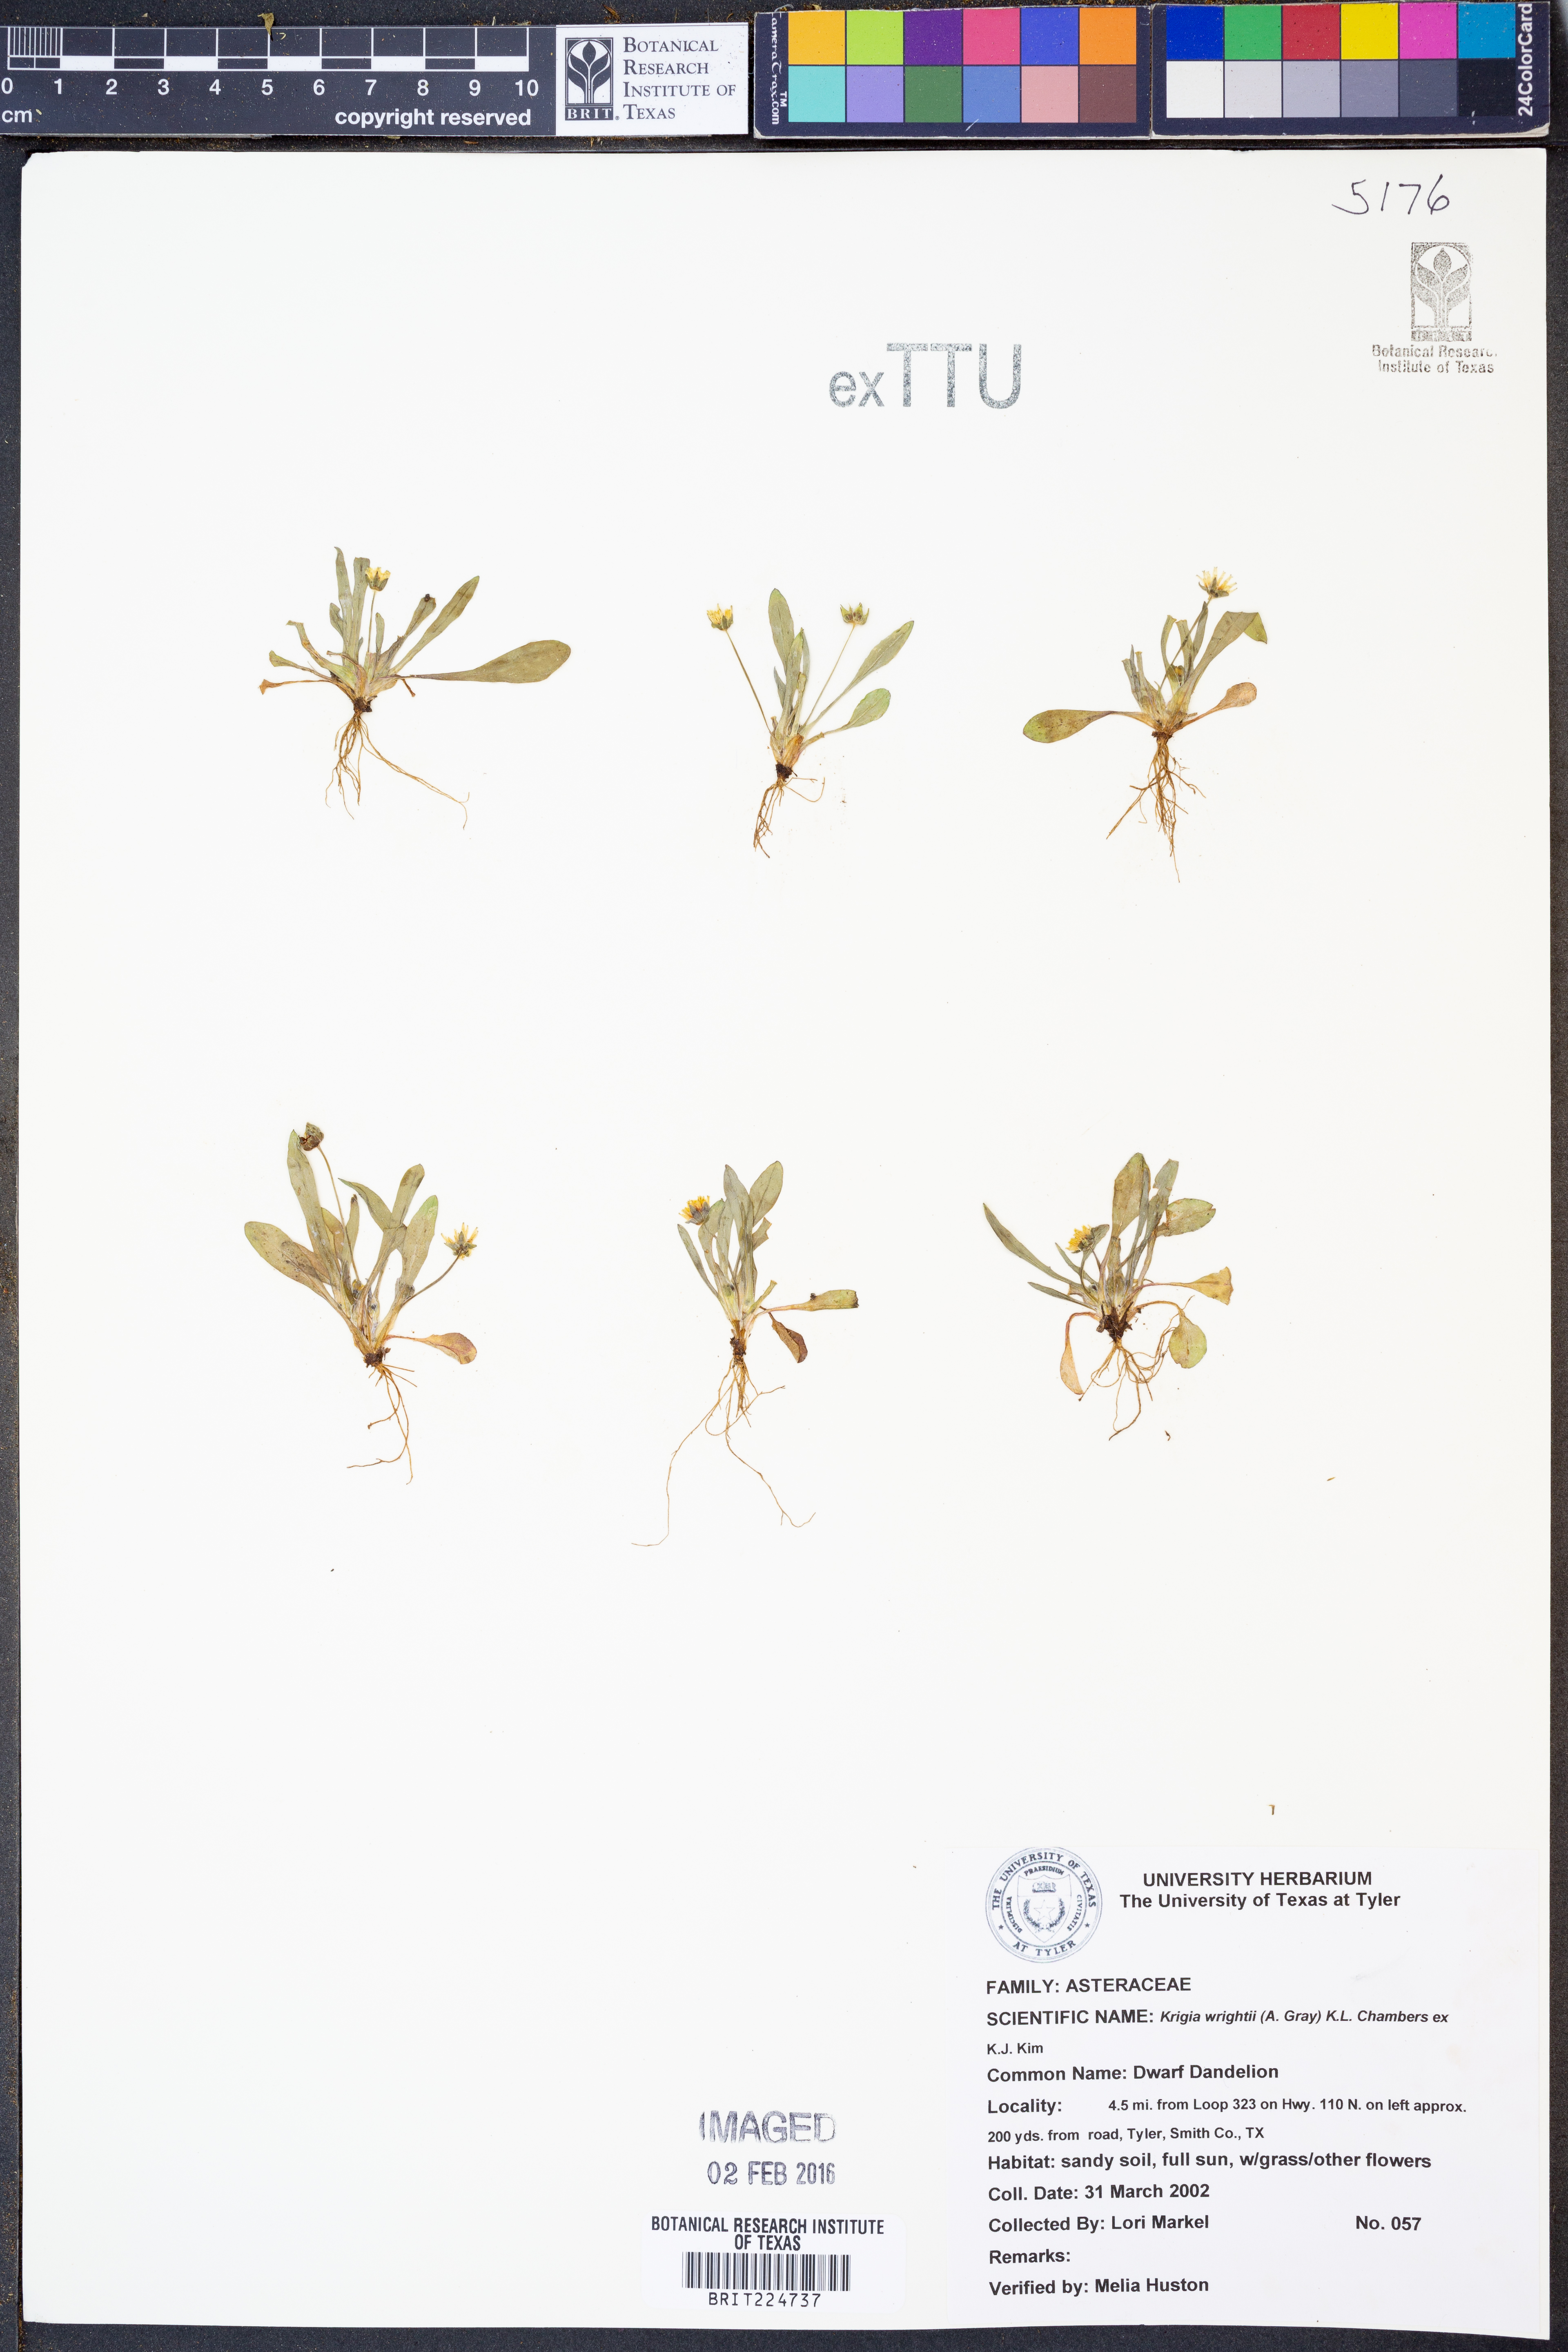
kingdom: Plantae
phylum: Tracheophyta
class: Magnoliopsida
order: Asterales
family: Asteraceae
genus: Krigia
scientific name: Krigia wrightii
